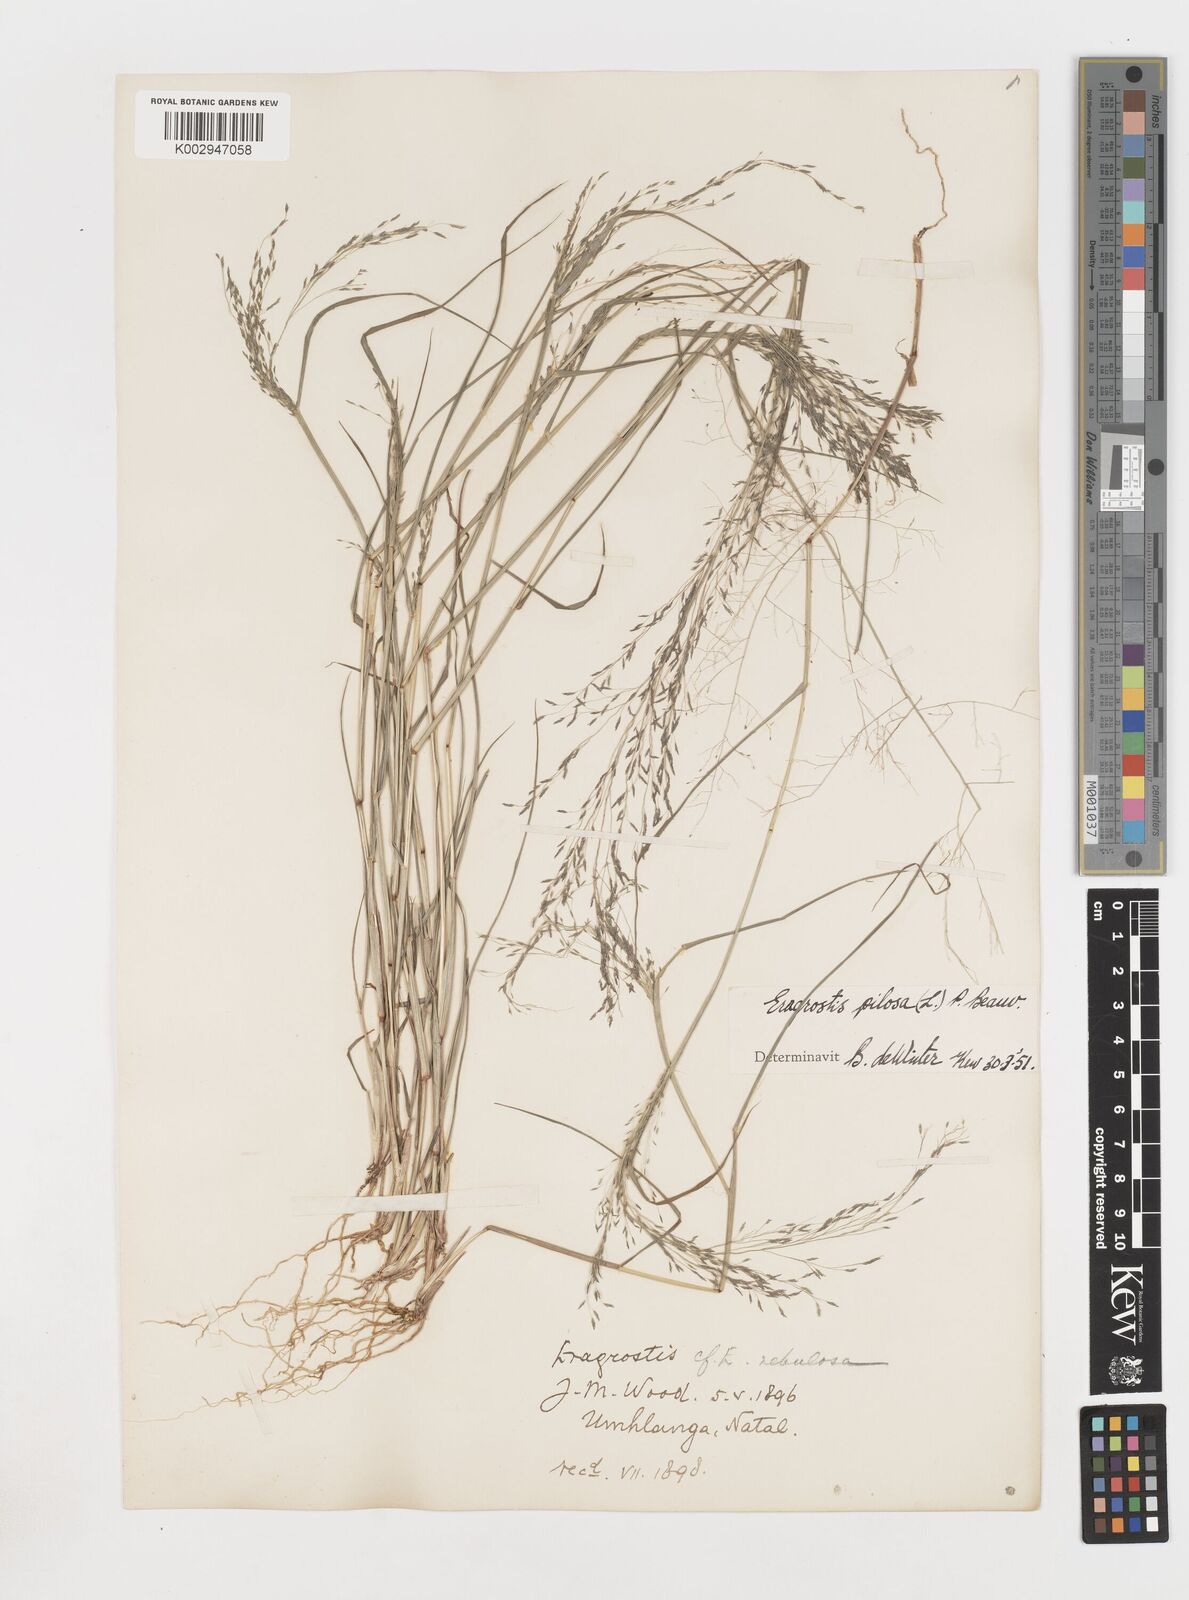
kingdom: Plantae
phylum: Tracheophyta
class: Liliopsida
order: Poales
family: Poaceae
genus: Eragrostis
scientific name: Eragrostis pilosa
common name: Indian lovegrass
